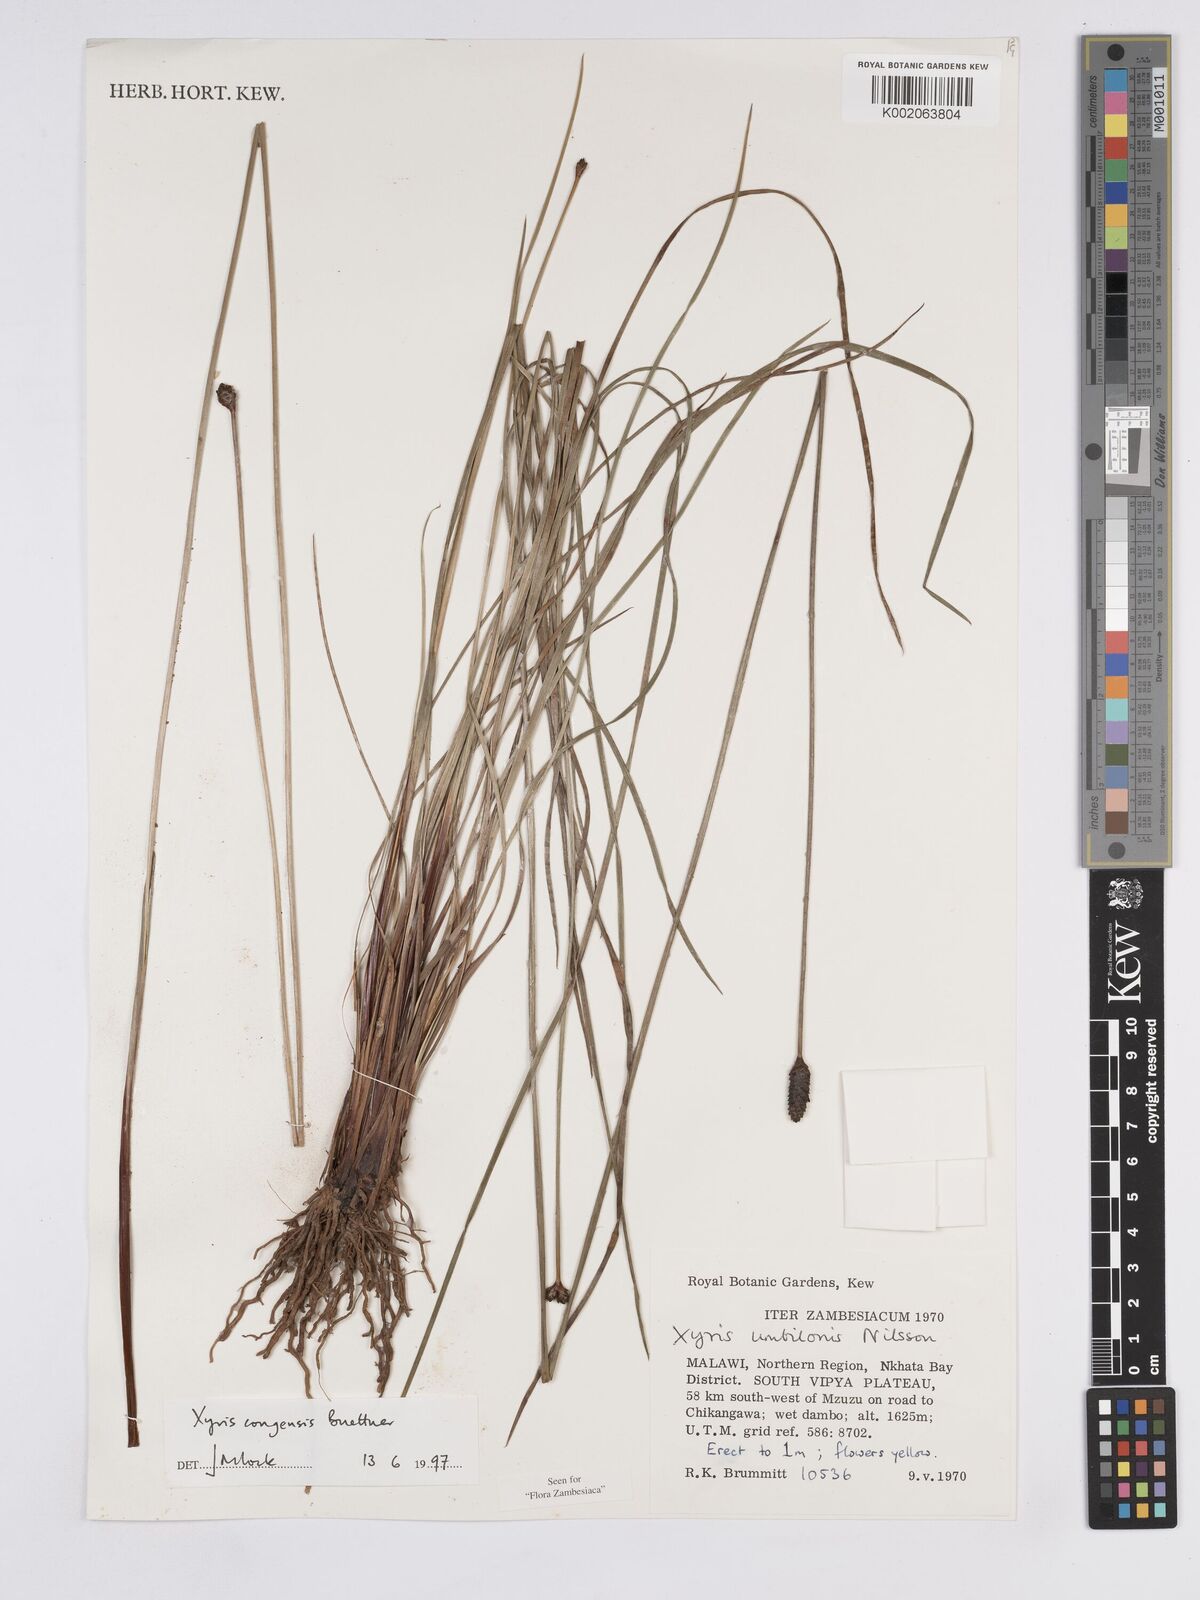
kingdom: Plantae
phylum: Tracheophyta
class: Liliopsida
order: Poales
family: Xyridaceae
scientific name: Xyridaceae
